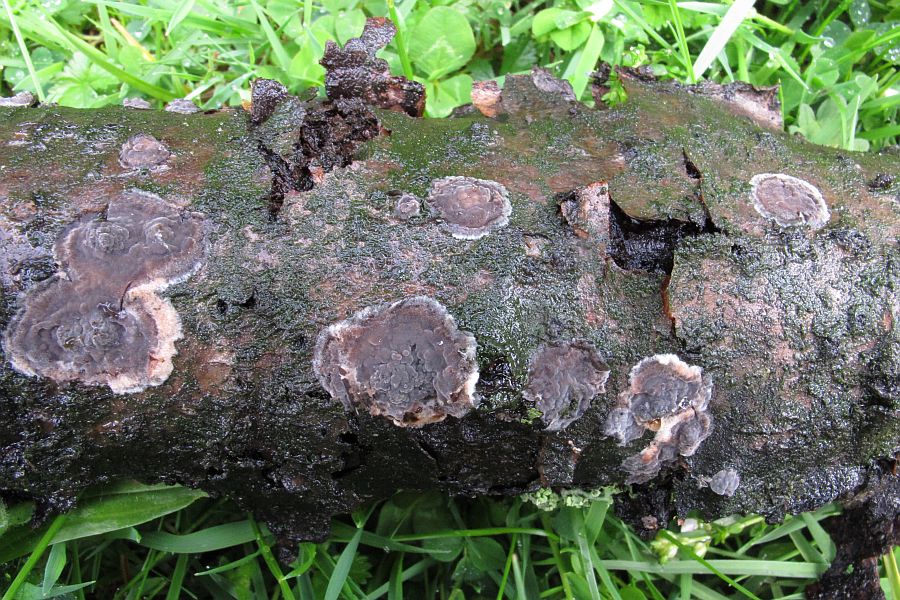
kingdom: Fungi
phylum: Basidiomycota
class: Agaricomycetes
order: Russulales
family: Peniophoraceae
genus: Peniophora
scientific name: Peniophora rufomarginata
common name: linde-voksskind
